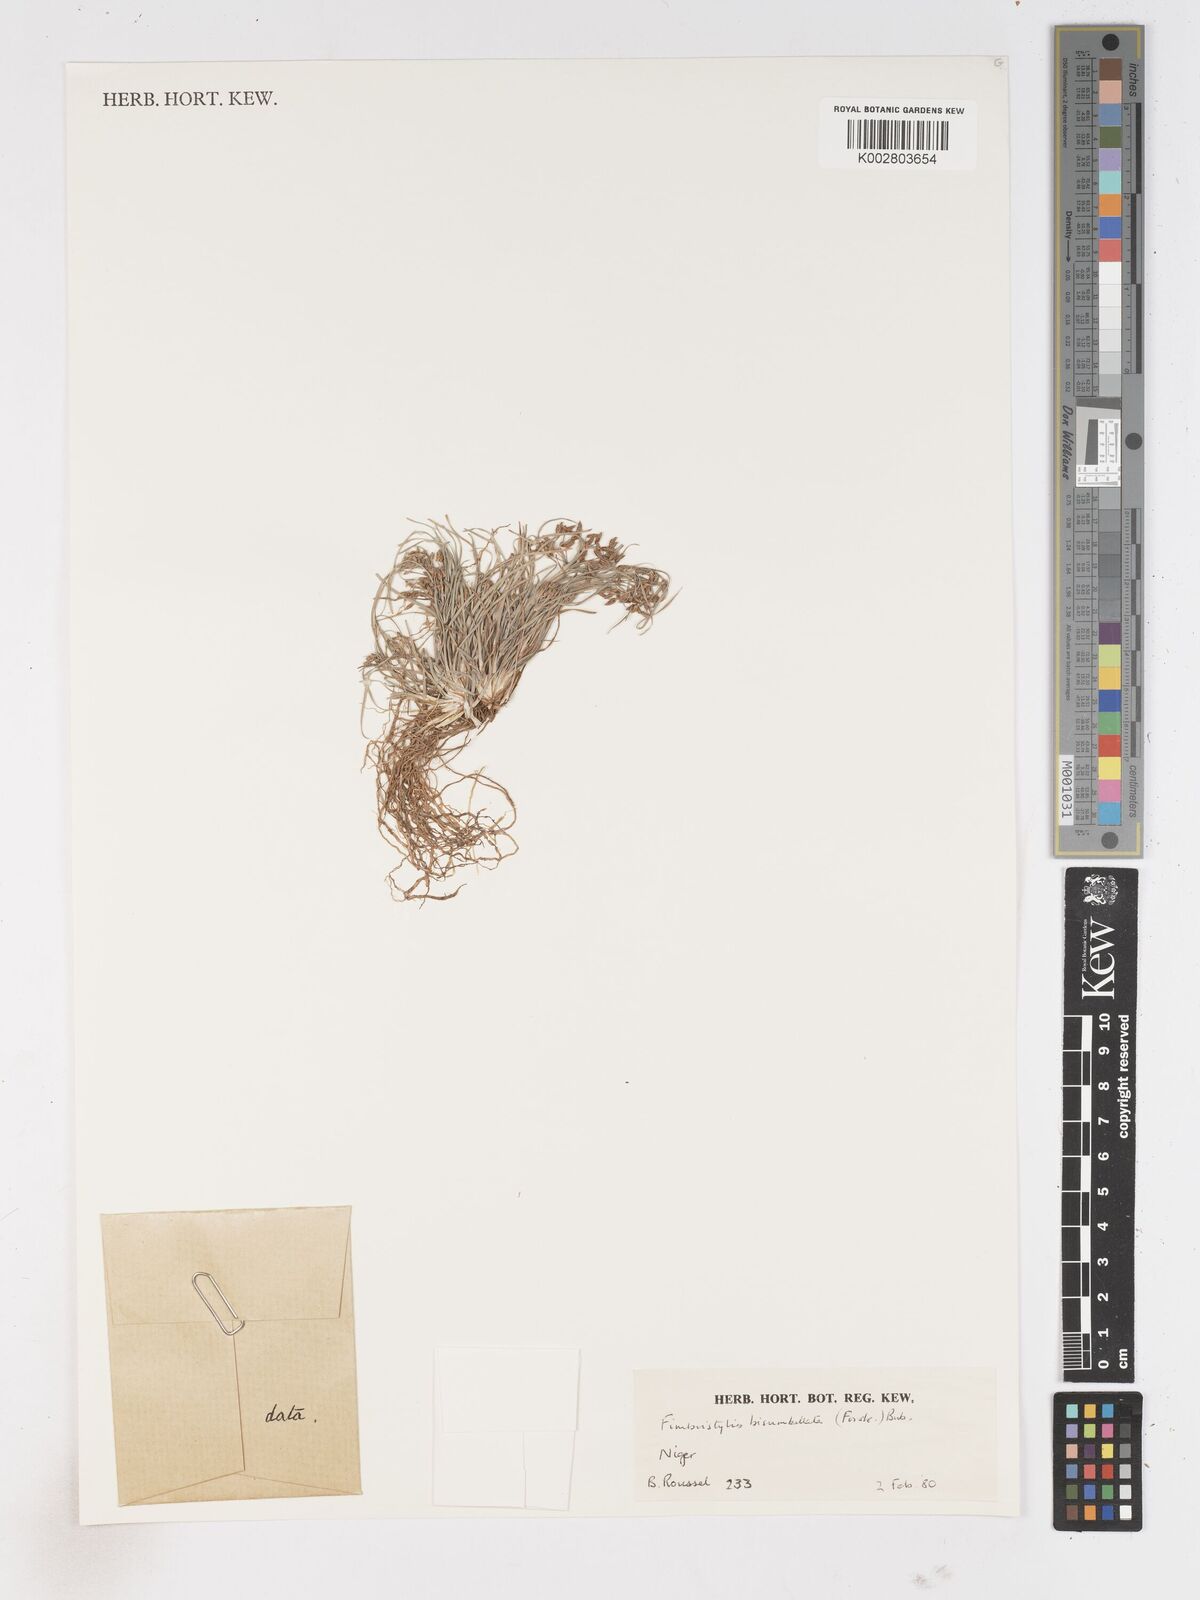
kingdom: Plantae
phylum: Tracheophyta
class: Liliopsida
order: Poales
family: Cyperaceae
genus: Fimbristylis
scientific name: Fimbristylis bisumbellata
